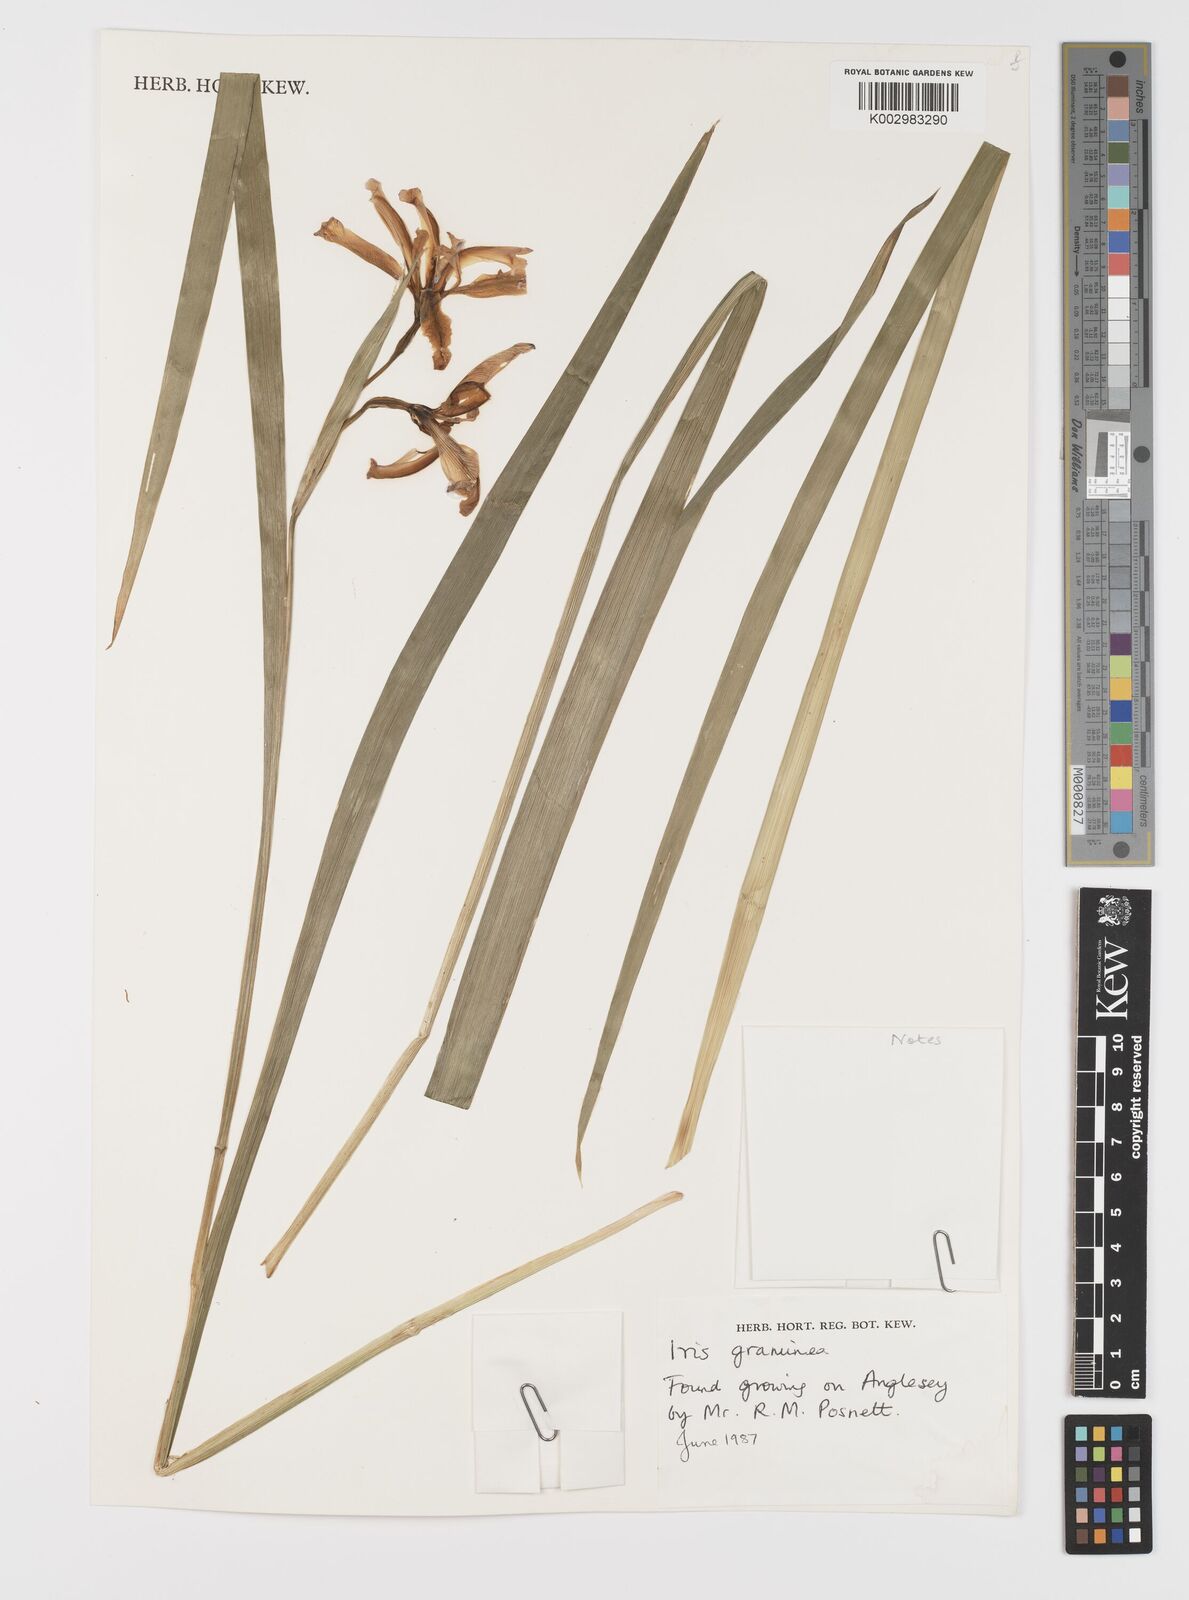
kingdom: Plantae
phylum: Tracheophyta
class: Liliopsida
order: Asparagales
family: Iridaceae
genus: Iris
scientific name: Iris graminea
